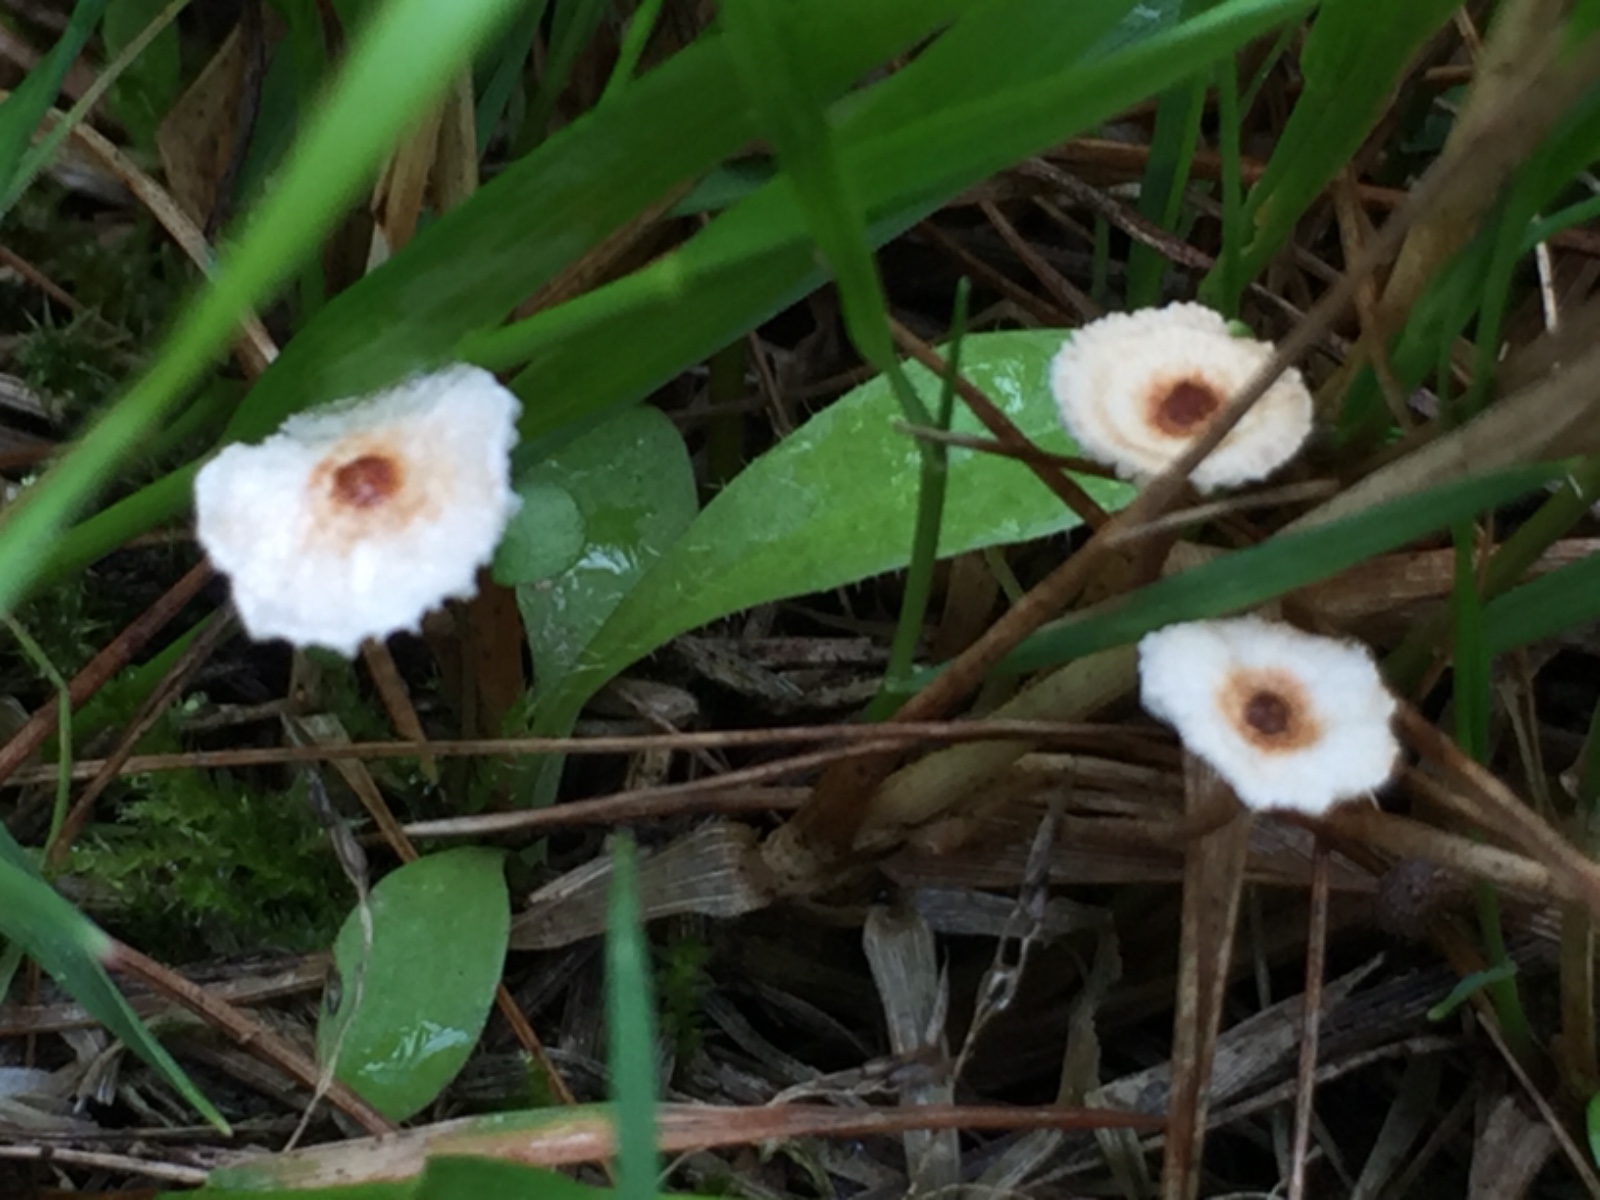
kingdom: Fungi
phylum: Basidiomycota
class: Agaricomycetes
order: Agaricales
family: Marasmiaceae
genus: Crinipellis
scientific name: Crinipellis scabella
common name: børstefod
